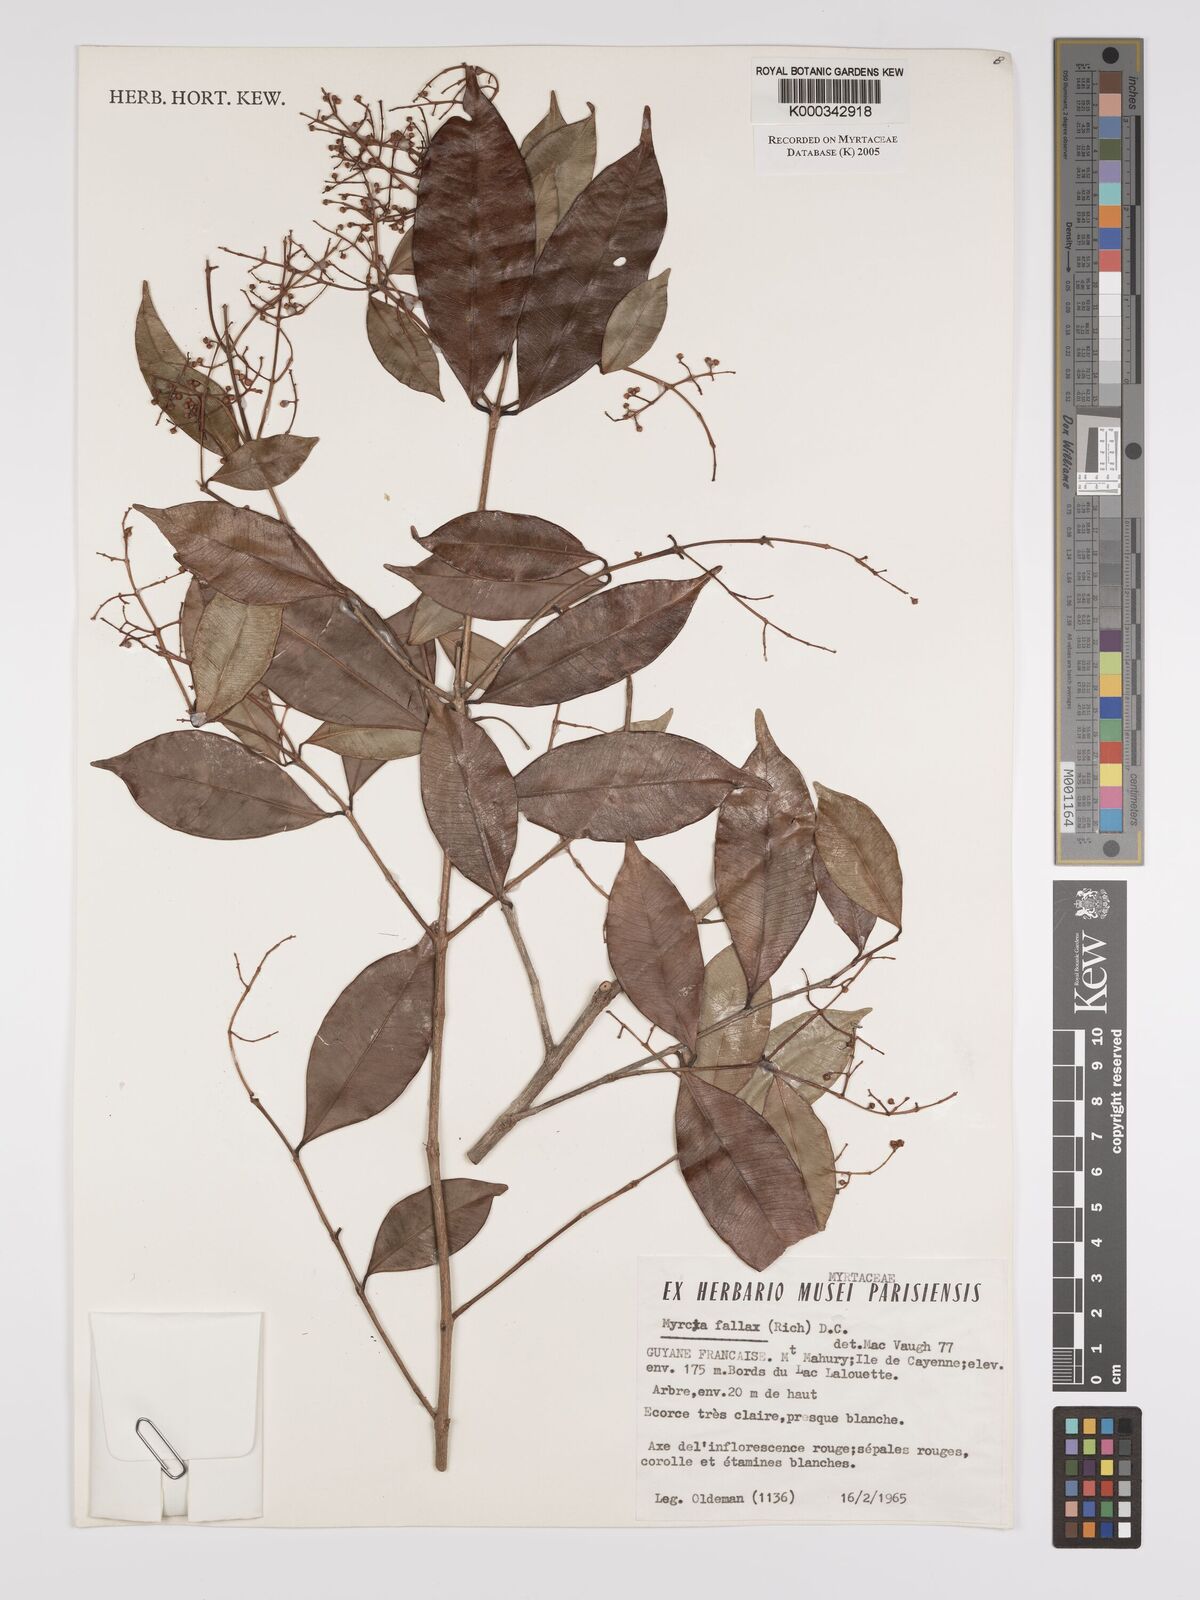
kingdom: Plantae
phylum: Tracheophyta
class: Magnoliopsida
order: Myrtales
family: Myrtaceae
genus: Myrcia
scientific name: Myrcia splendens
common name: Surinam cherry
